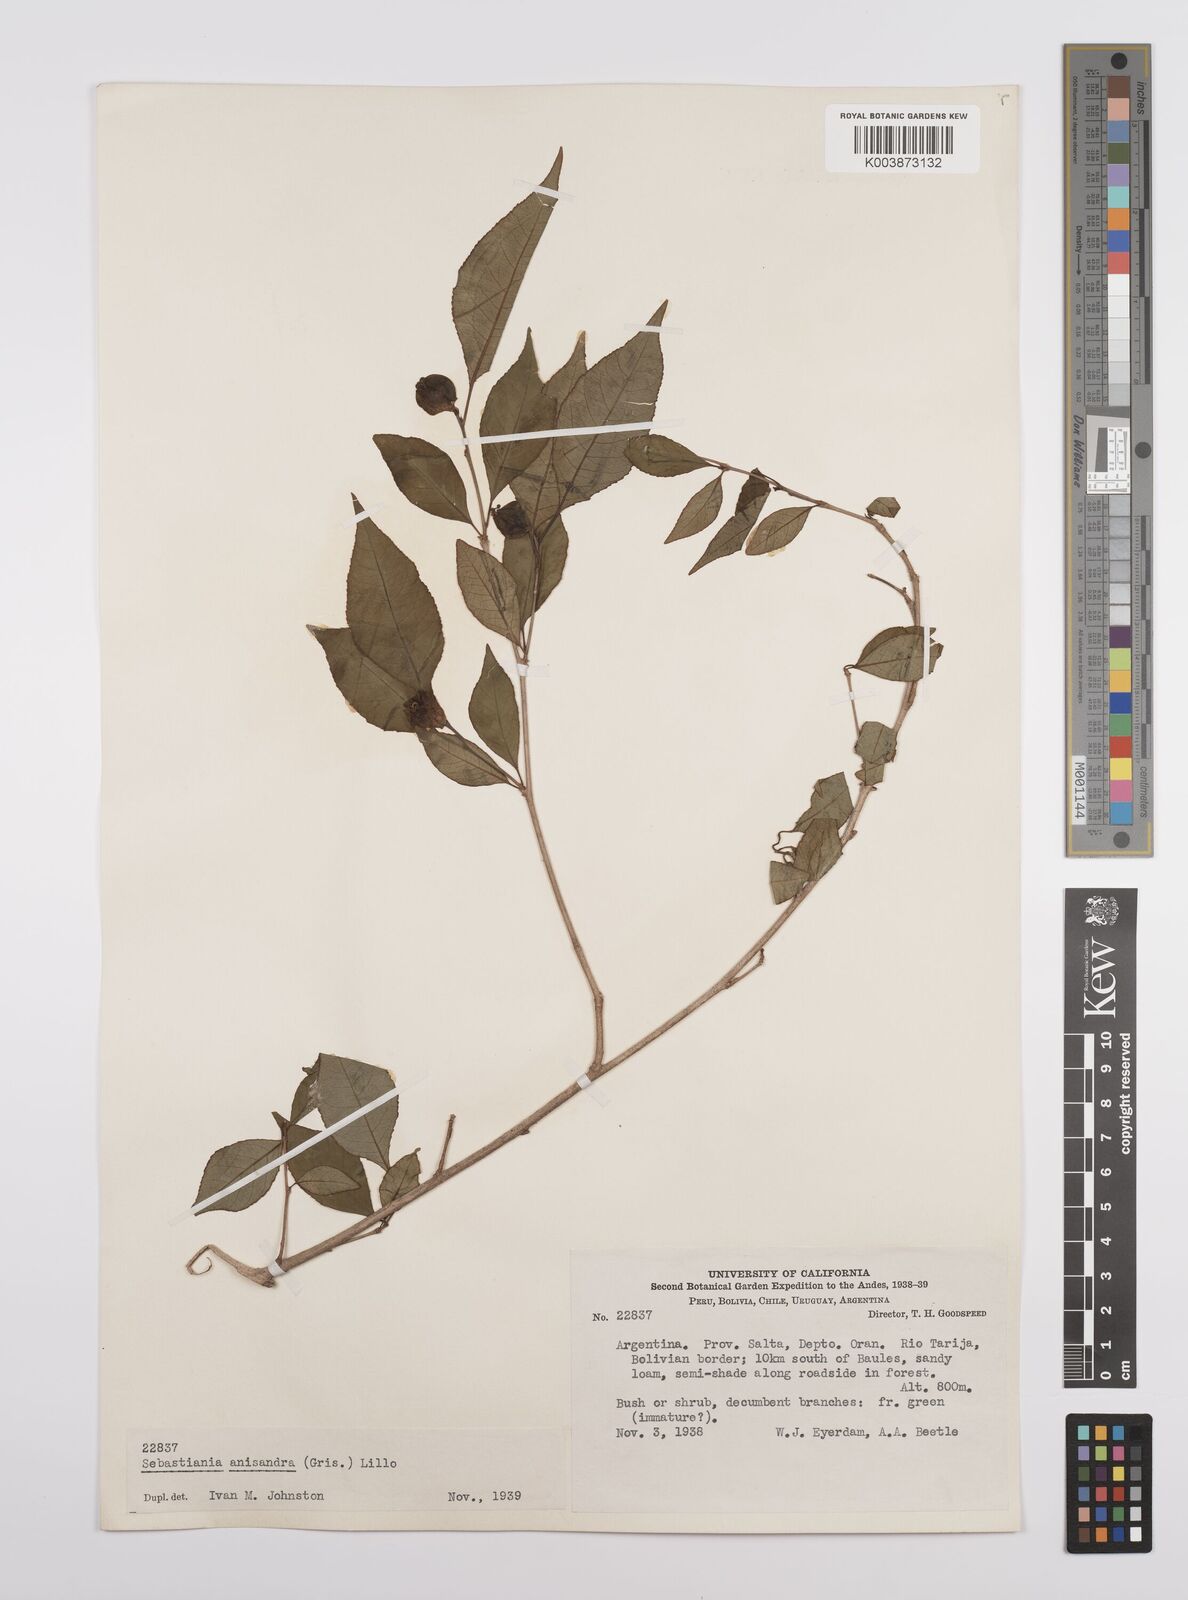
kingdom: Plantae
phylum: Tracheophyta
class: Magnoliopsida
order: Malpighiales
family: Euphorbiaceae
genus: Sebastiania
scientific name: Sebastiania brasiliensis
